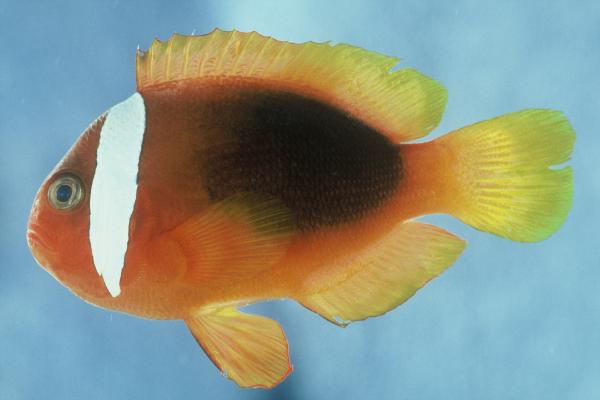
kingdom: Animalia
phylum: Chordata
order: Perciformes
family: Pomacentridae
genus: Amphiprion
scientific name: Amphiprion rubrocinctus
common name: Australian anemonefish
